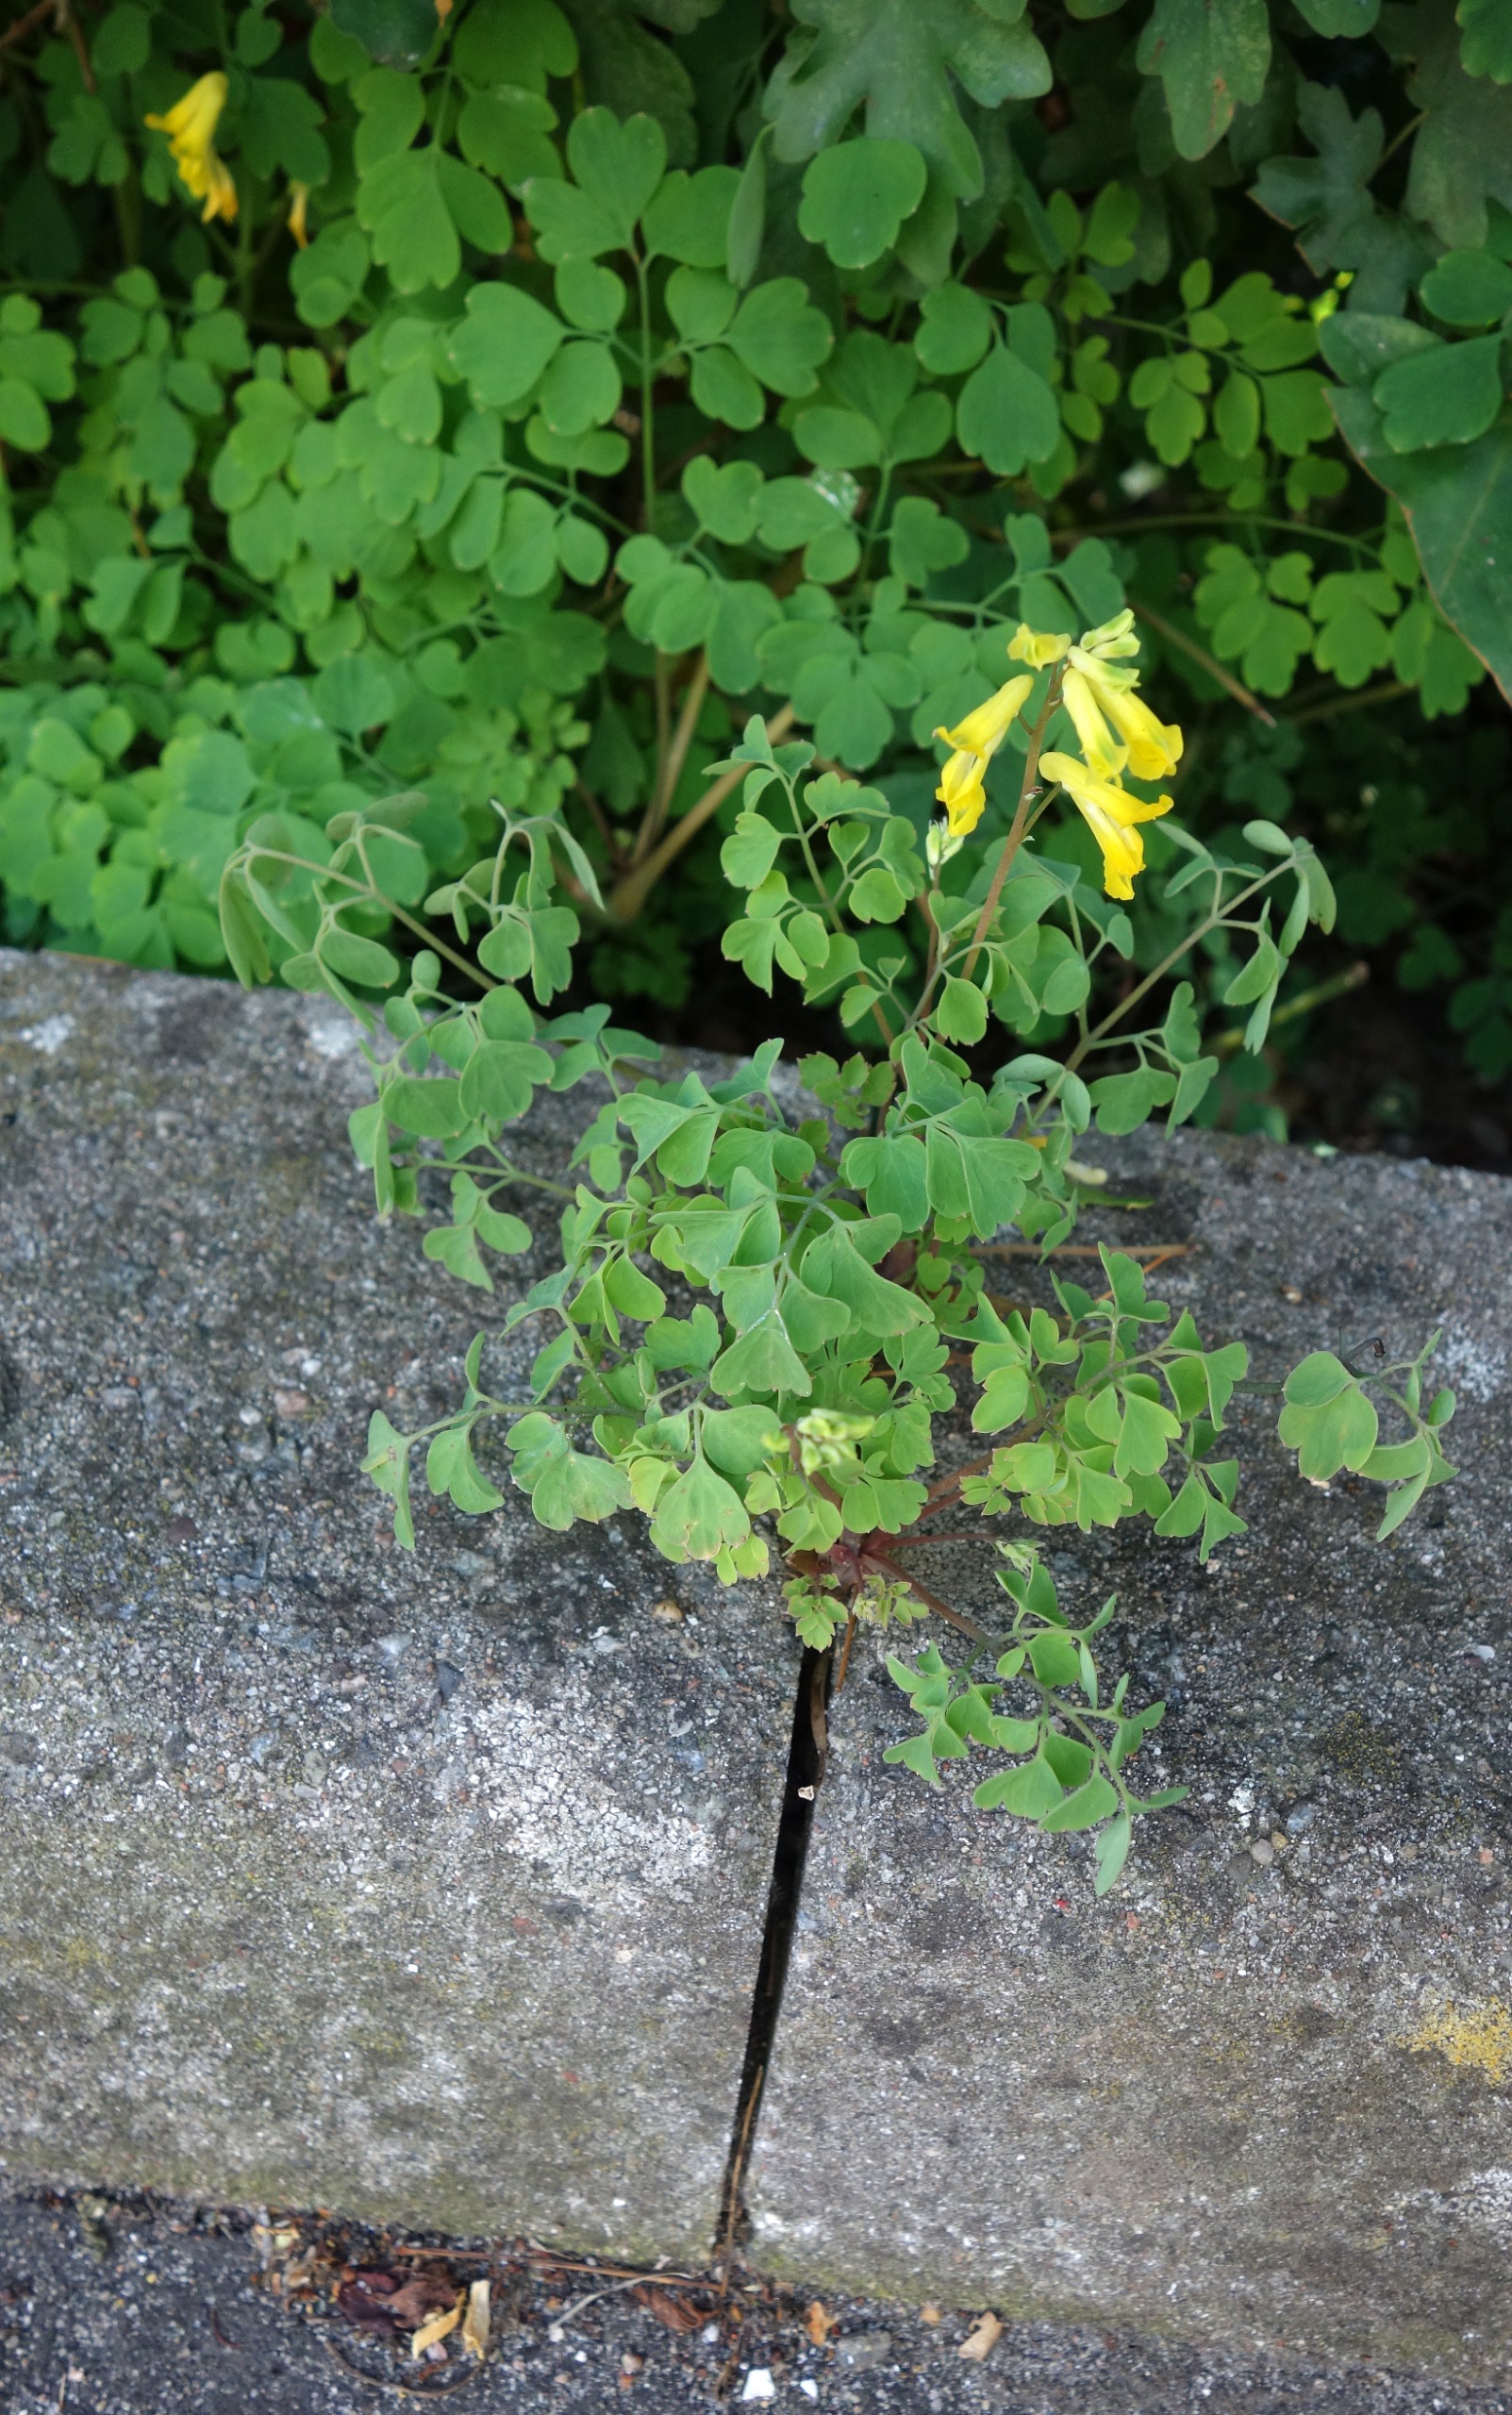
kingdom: Plantae
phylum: Tracheophyta
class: Magnoliopsida
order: Ranunculales
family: Papaveraceae
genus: Pseudofumaria
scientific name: Pseudofumaria lutea
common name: Gul lærkespore
